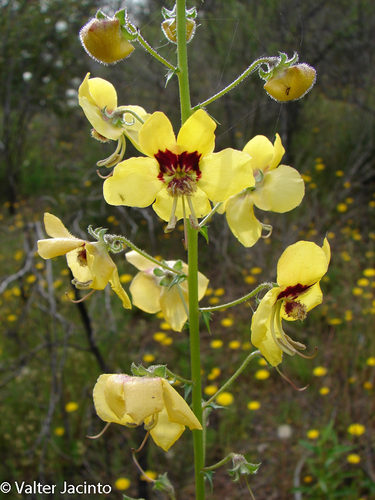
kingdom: Plantae
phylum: Tracheophyta
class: Magnoliopsida
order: Lamiales
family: Scrophulariaceae
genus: Verbascum
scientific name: Verbascum barnadesii
